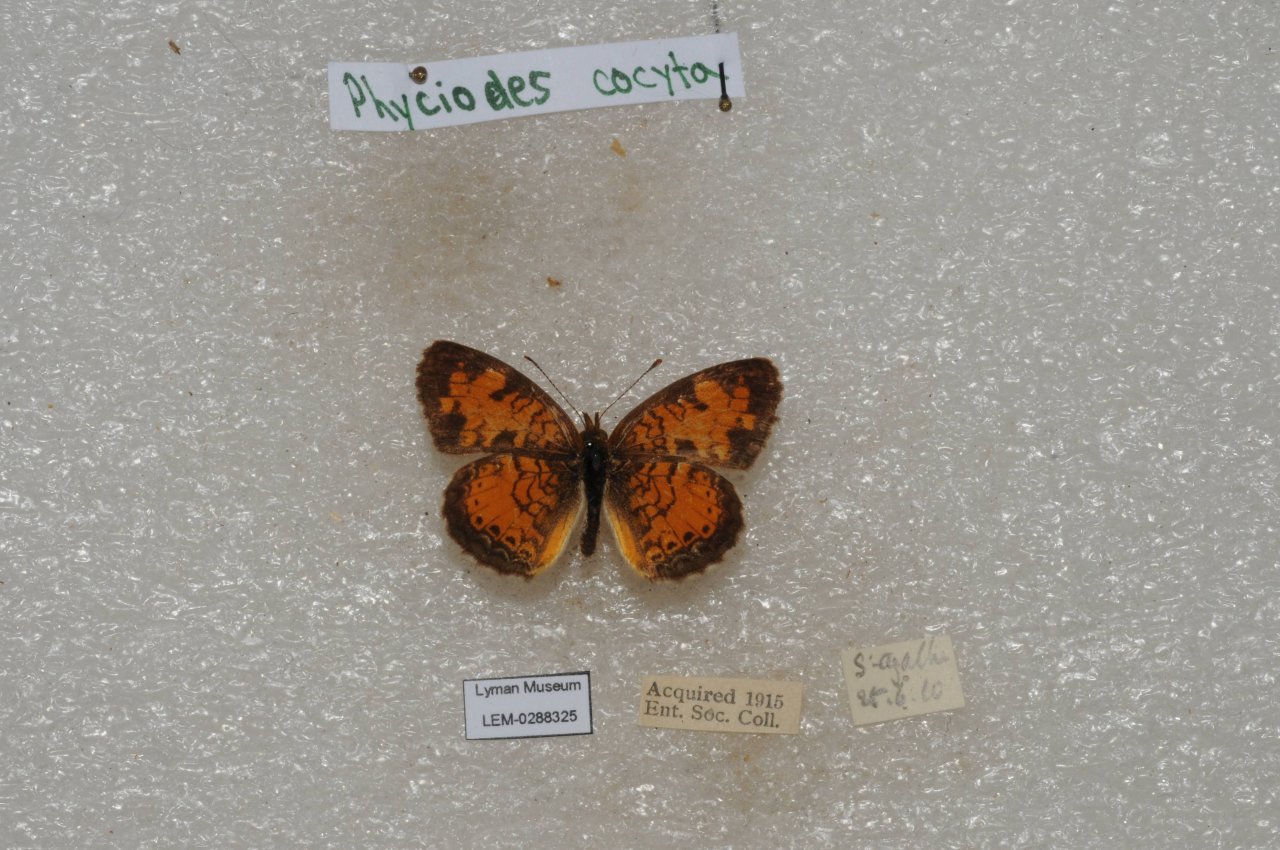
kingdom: Animalia
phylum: Arthropoda
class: Insecta
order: Lepidoptera
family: Nymphalidae
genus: Phyciodes
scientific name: Phyciodes tharos
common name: Northern Crescent
